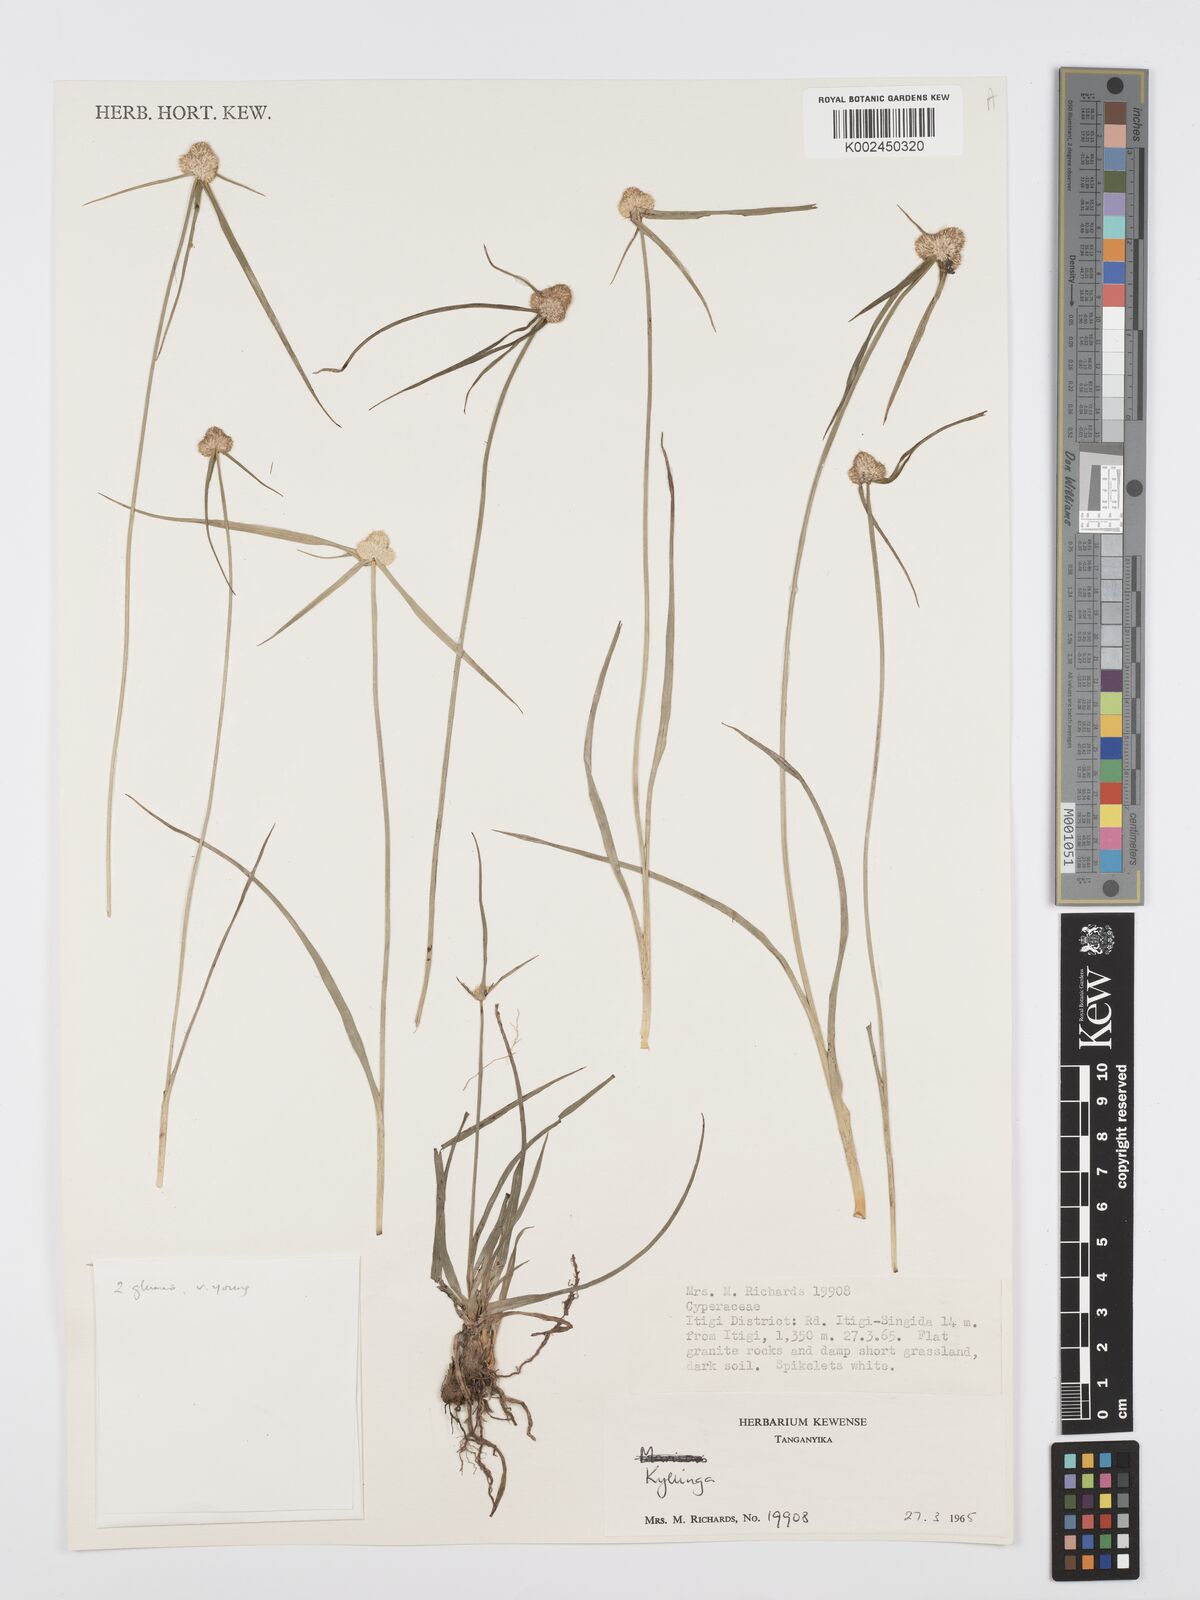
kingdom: Plantae
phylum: Tracheophyta
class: Liliopsida
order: Poales
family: Cyperaceae
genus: Cyperus
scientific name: Cyperus
